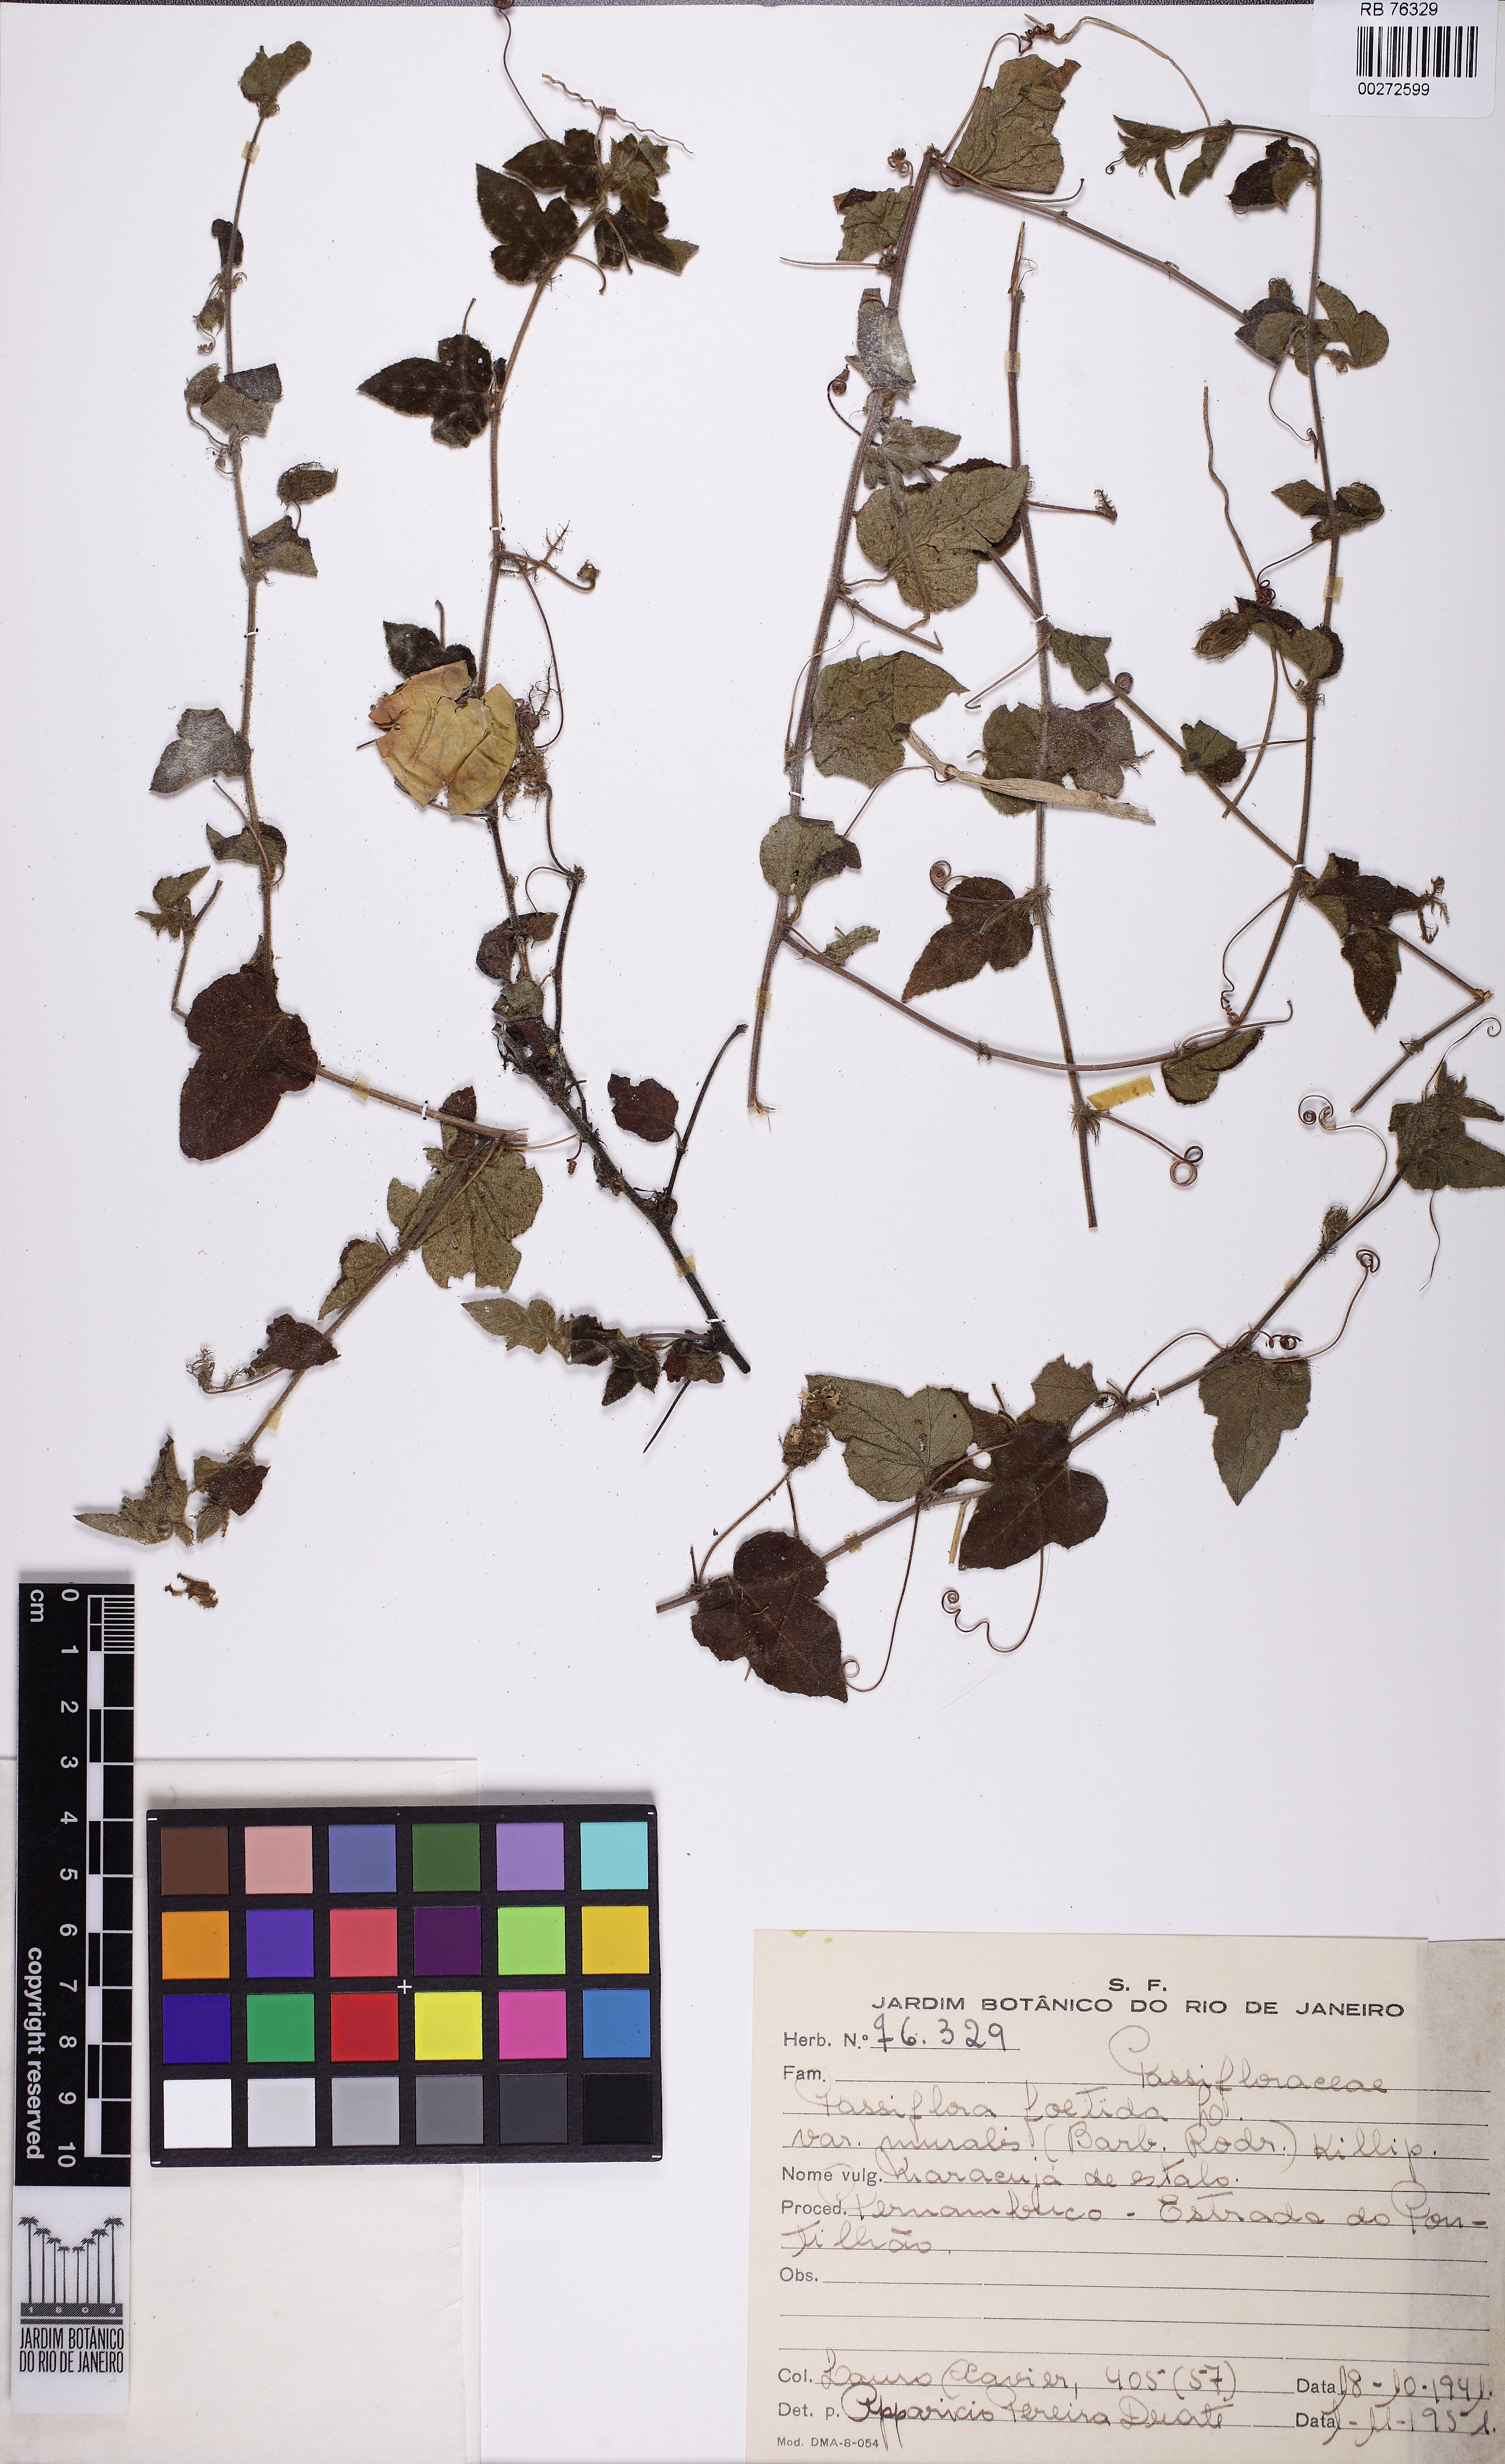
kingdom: Plantae
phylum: Tracheophyta
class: Magnoliopsida
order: Malpighiales
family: Passifloraceae
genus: Passiflora
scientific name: Passiflora foetida
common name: Fetid passionflower
